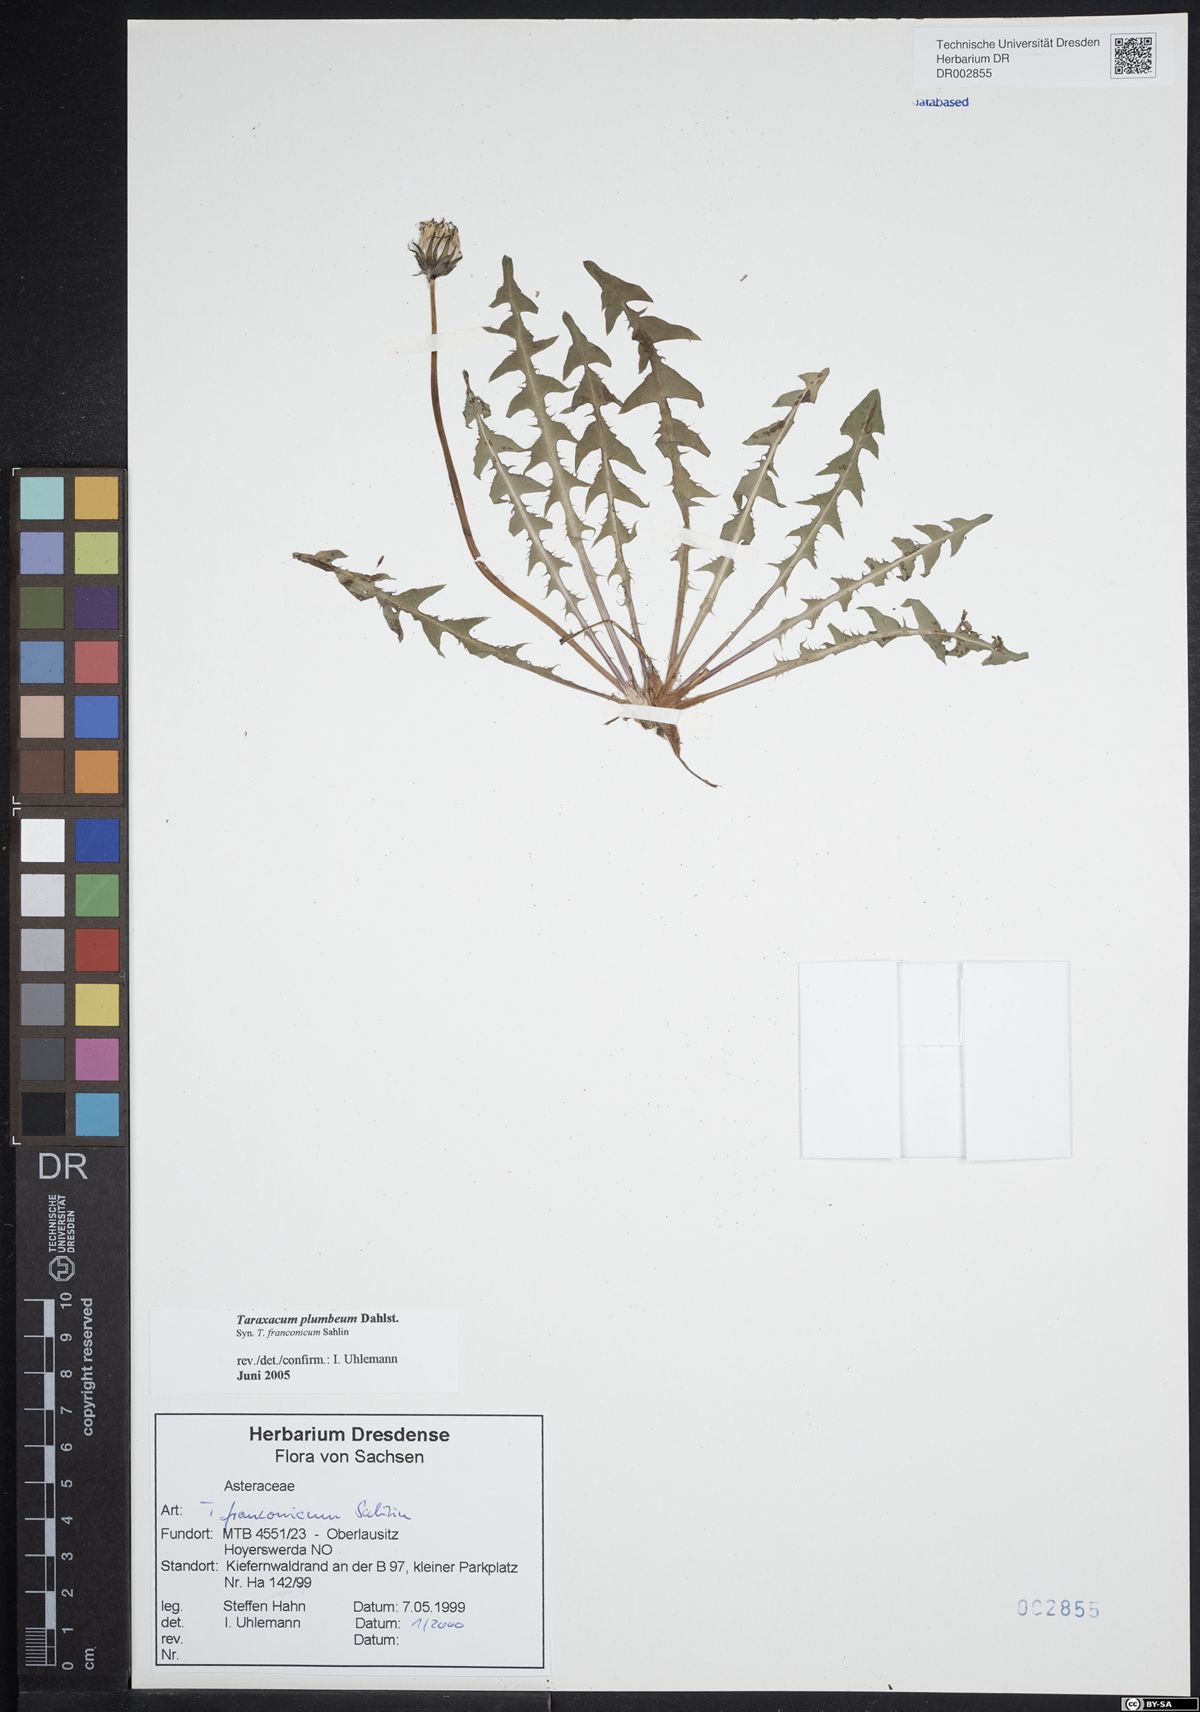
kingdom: Plantae
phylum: Tracheophyta
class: Magnoliopsida
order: Asterales
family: Asteraceae
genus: Taraxacum
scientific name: Taraxacum plumbeum
